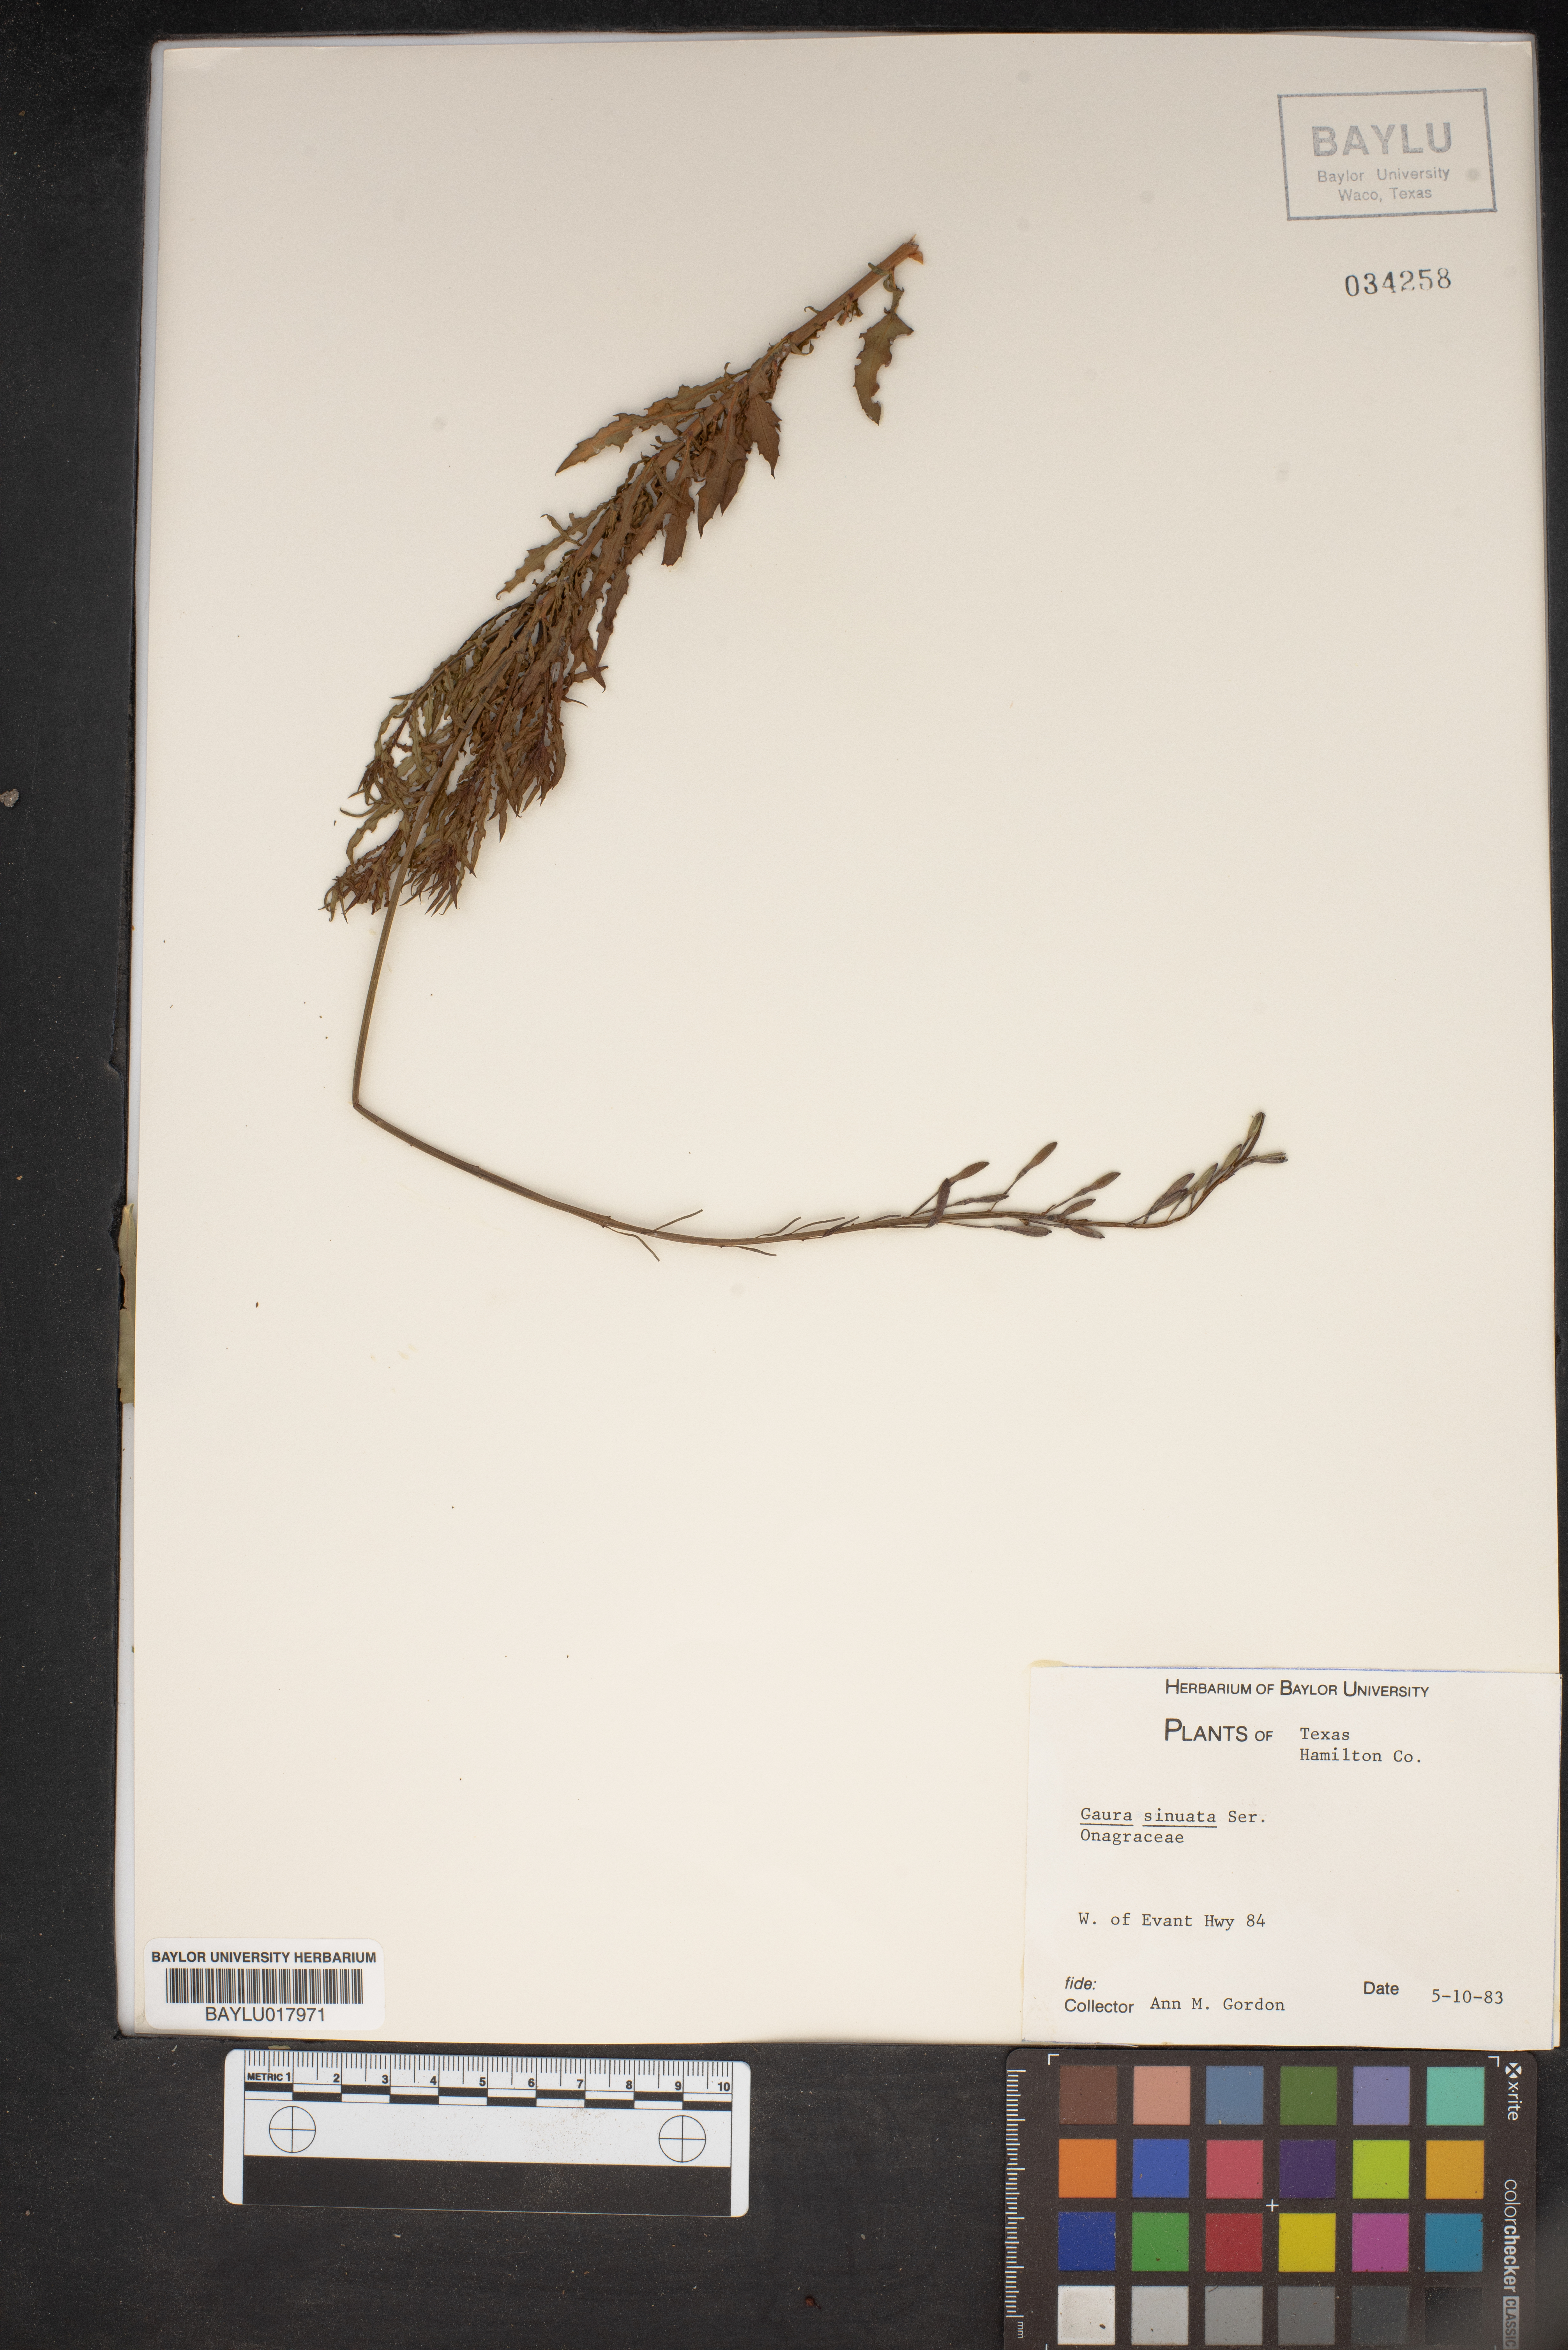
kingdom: Plantae
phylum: Tracheophyta
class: Magnoliopsida
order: Myrtales
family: Onagraceae
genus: Oenothera
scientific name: Oenothera sinuosa
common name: Wavyleaf beeblossom
